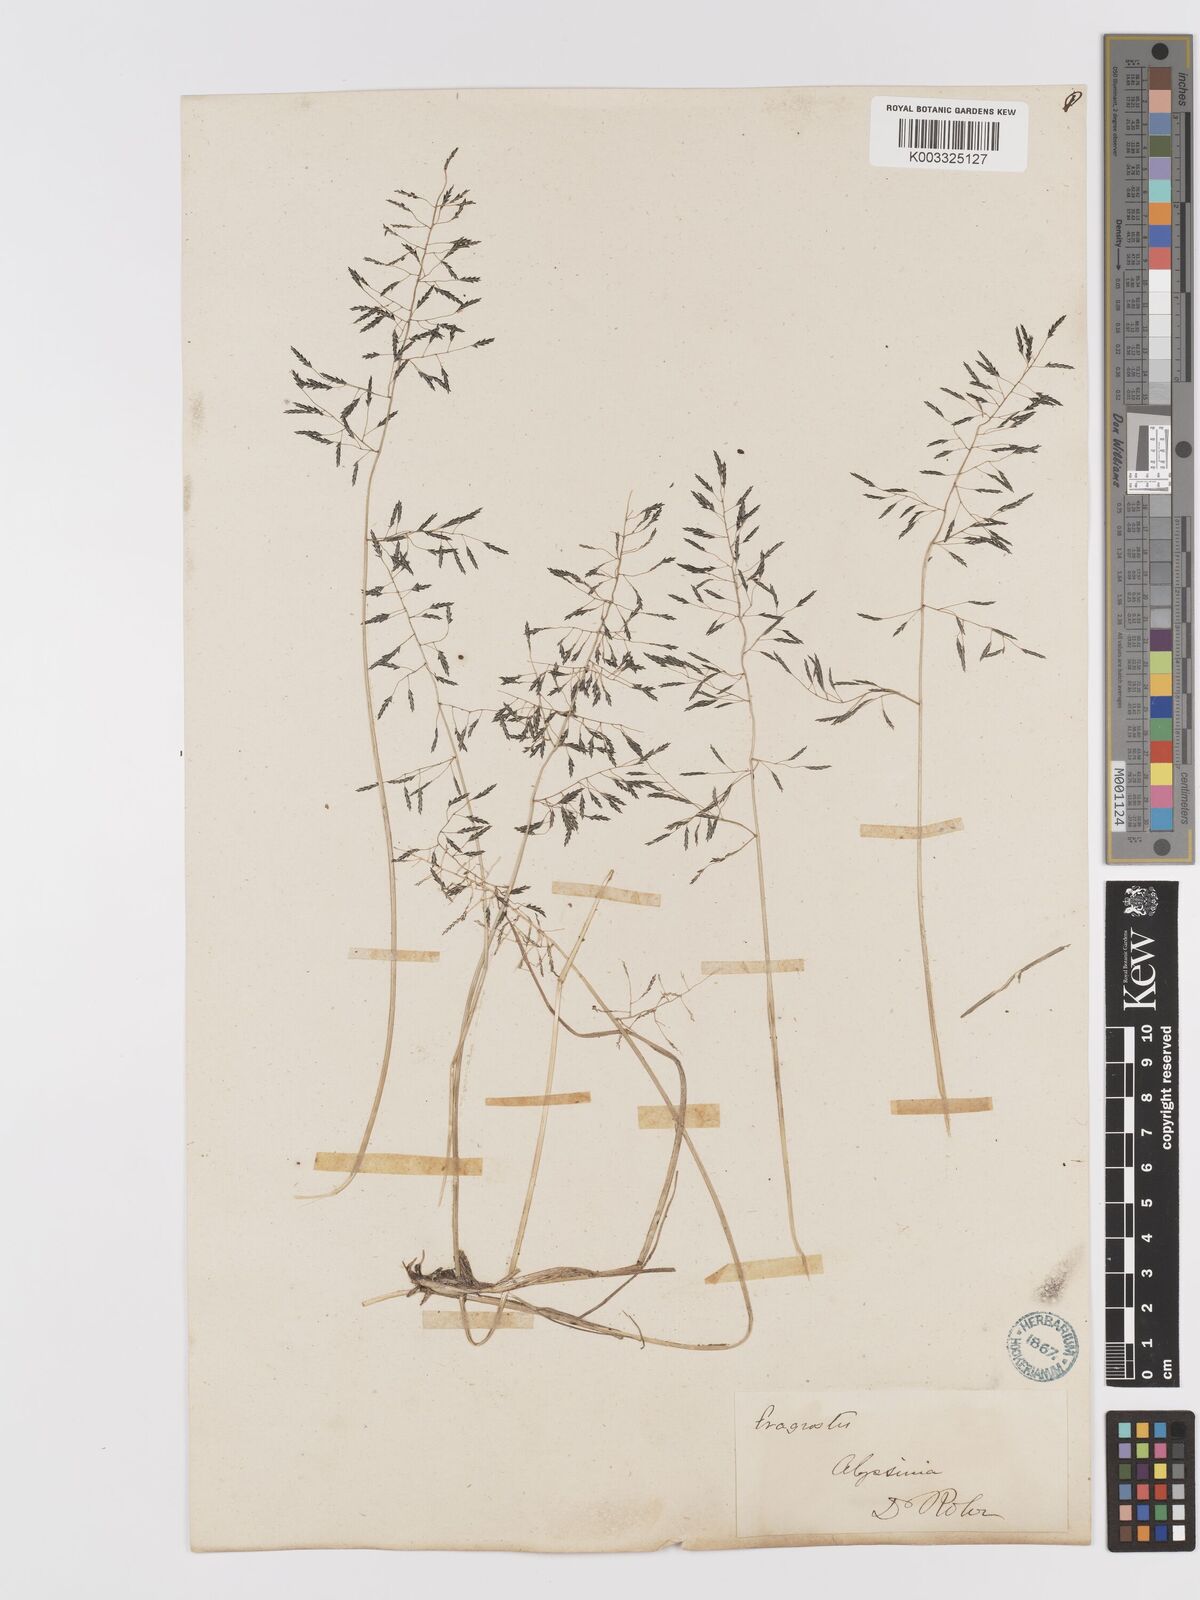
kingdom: Plantae
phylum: Tracheophyta
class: Liliopsida
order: Poales
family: Poaceae
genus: Eragrostis
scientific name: Eragrostis tenuifolia
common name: Elastic grass
